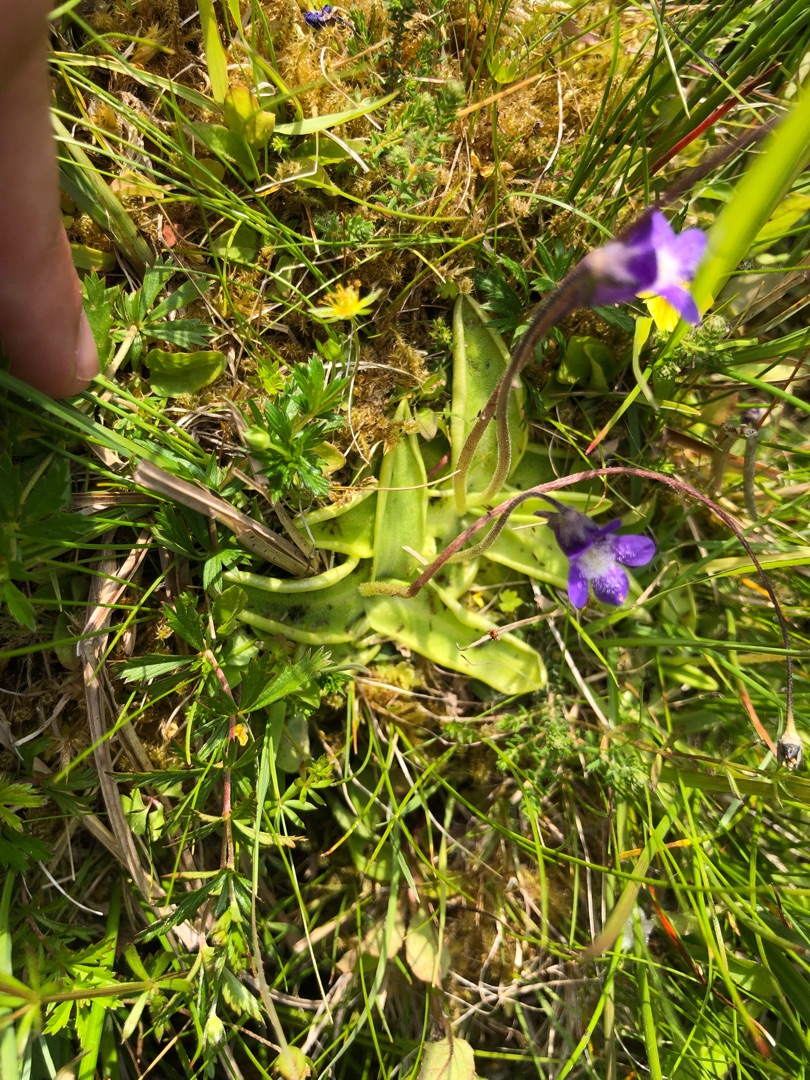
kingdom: Plantae
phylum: Tracheophyta
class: Magnoliopsida
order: Lamiales
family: Lentibulariaceae
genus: Pinguicula
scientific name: Pinguicula vulgaris
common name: Vibefedt
